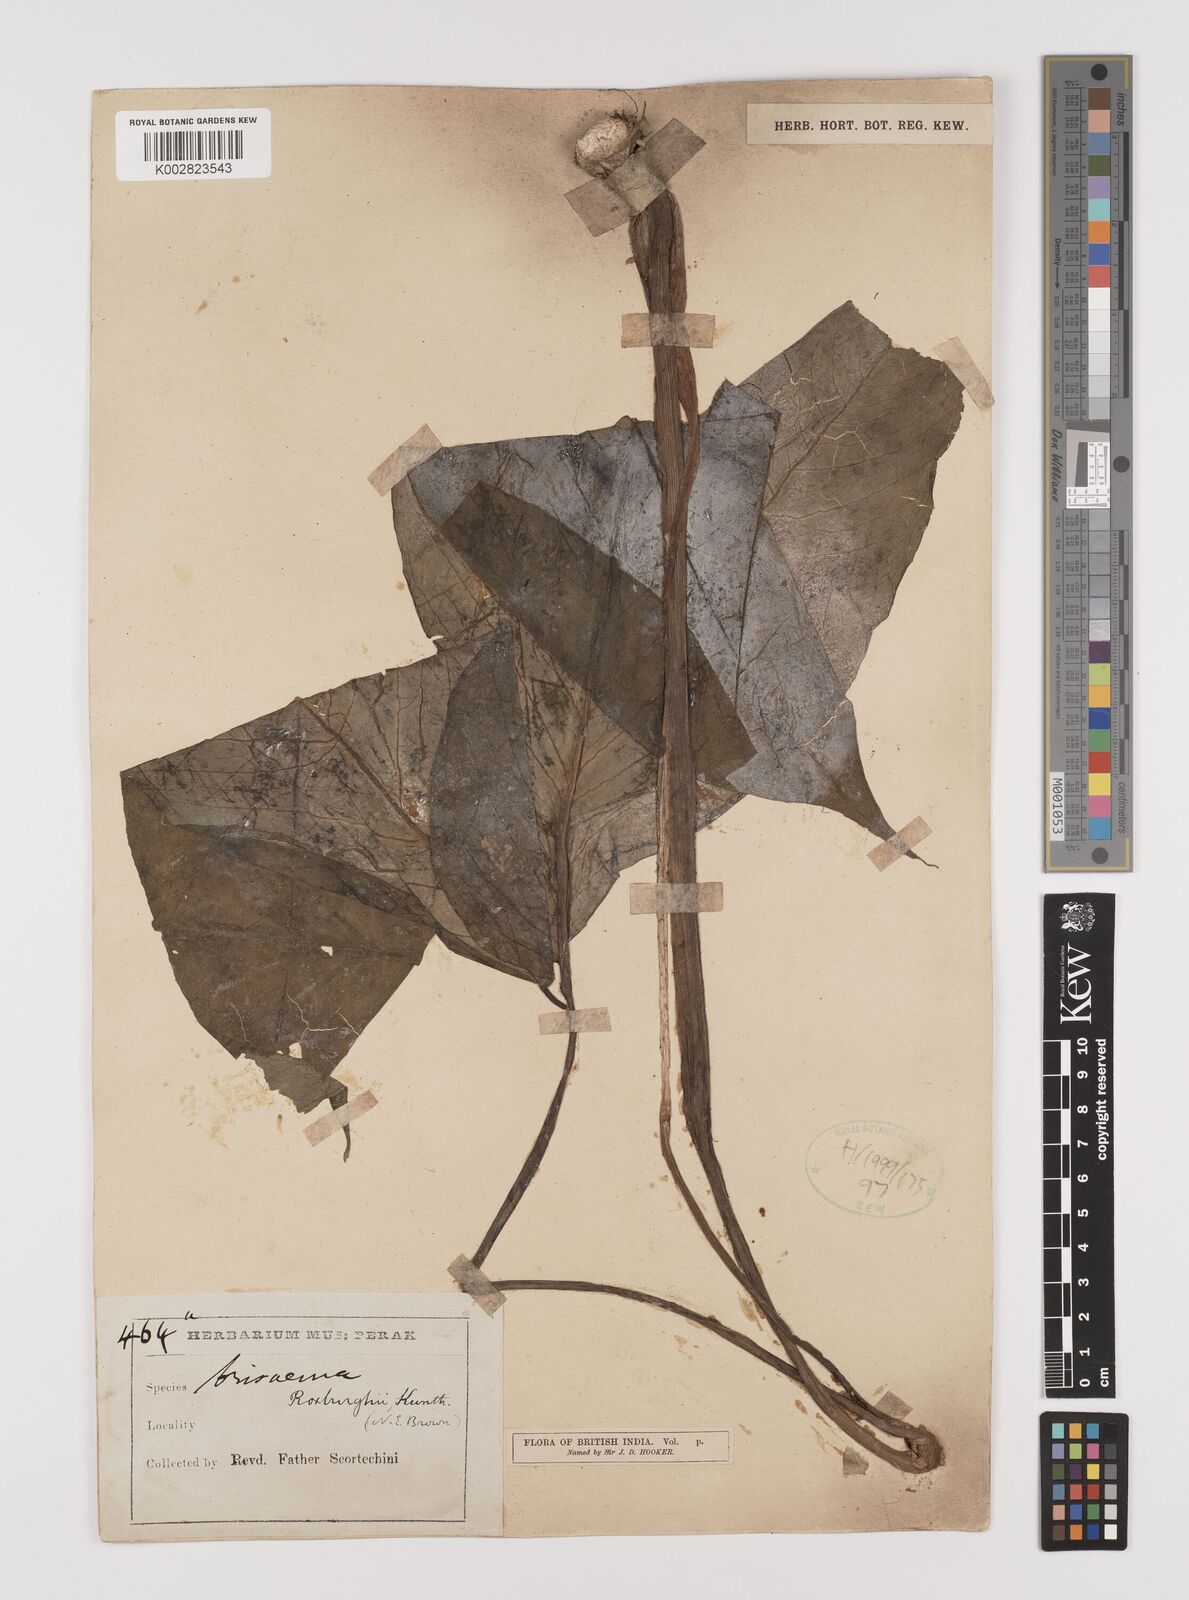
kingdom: Plantae
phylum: Tracheophyta
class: Liliopsida
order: Alismatales
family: Araceae
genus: Arisaema
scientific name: Arisaema roxburghii
